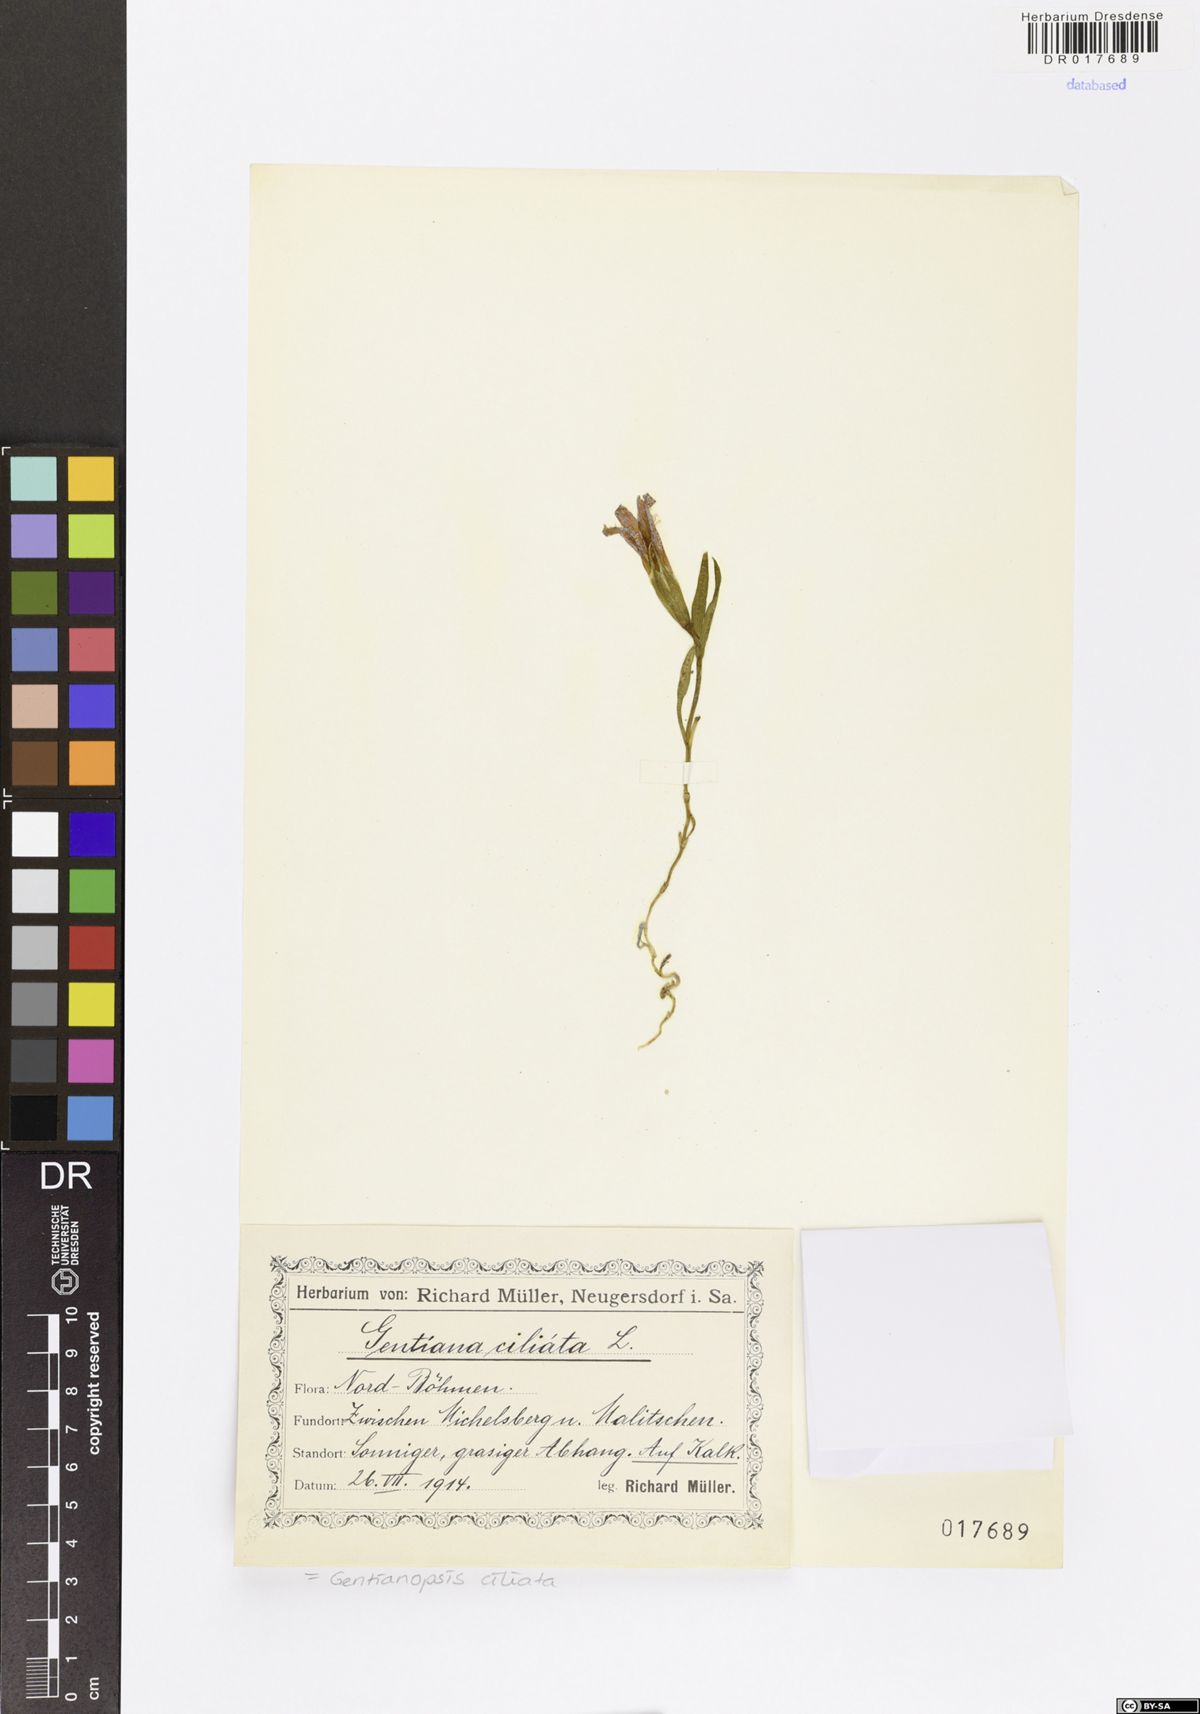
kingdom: Plantae
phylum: Tracheophyta
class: Magnoliopsida
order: Gentianales
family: Gentianaceae
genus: Gentianopsis
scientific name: Gentianopsis ciliata
